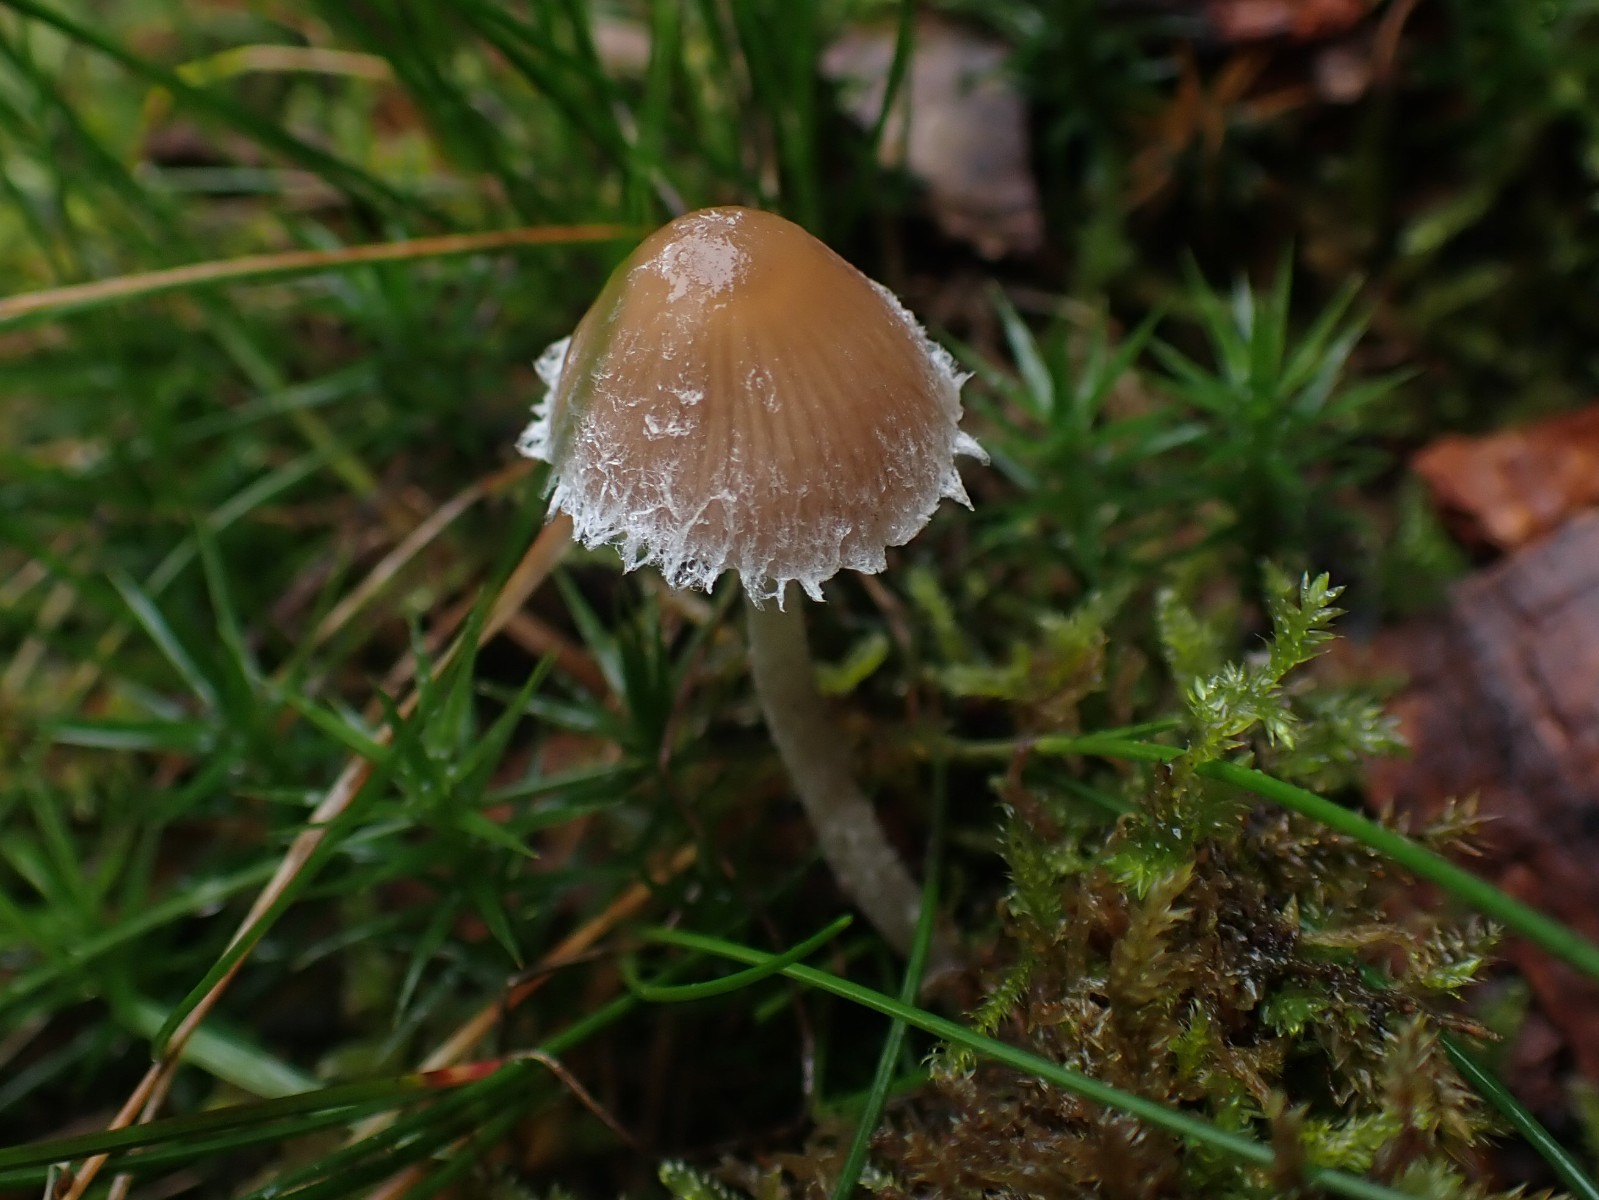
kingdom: Fungi
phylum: Basidiomycota
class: Agaricomycetes
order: Agaricales
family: Psathyrellaceae
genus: Psathyrella
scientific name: Psathyrella
